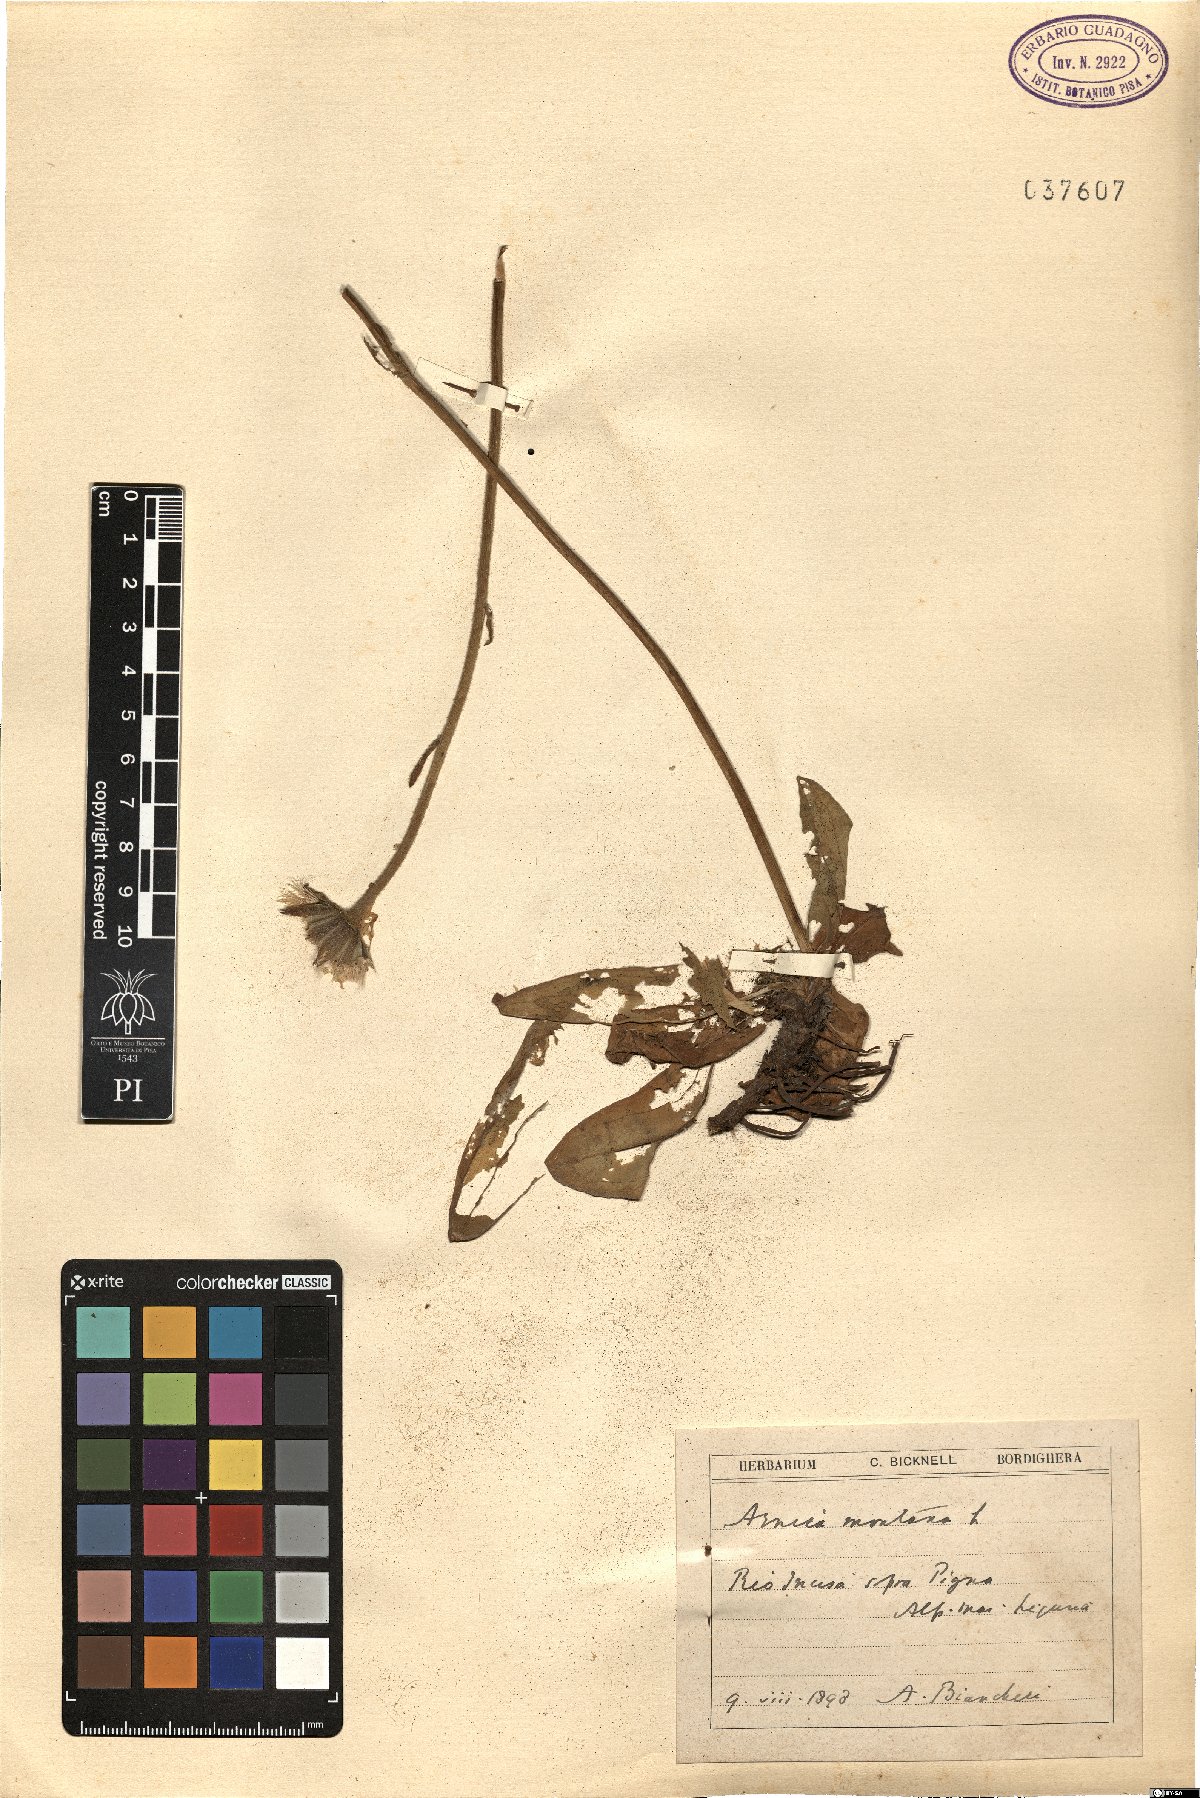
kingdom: Plantae
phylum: Tracheophyta
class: Magnoliopsida
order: Asterales
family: Asteraceae
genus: Arnica
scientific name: Arnica montana
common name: Leopard's bane
